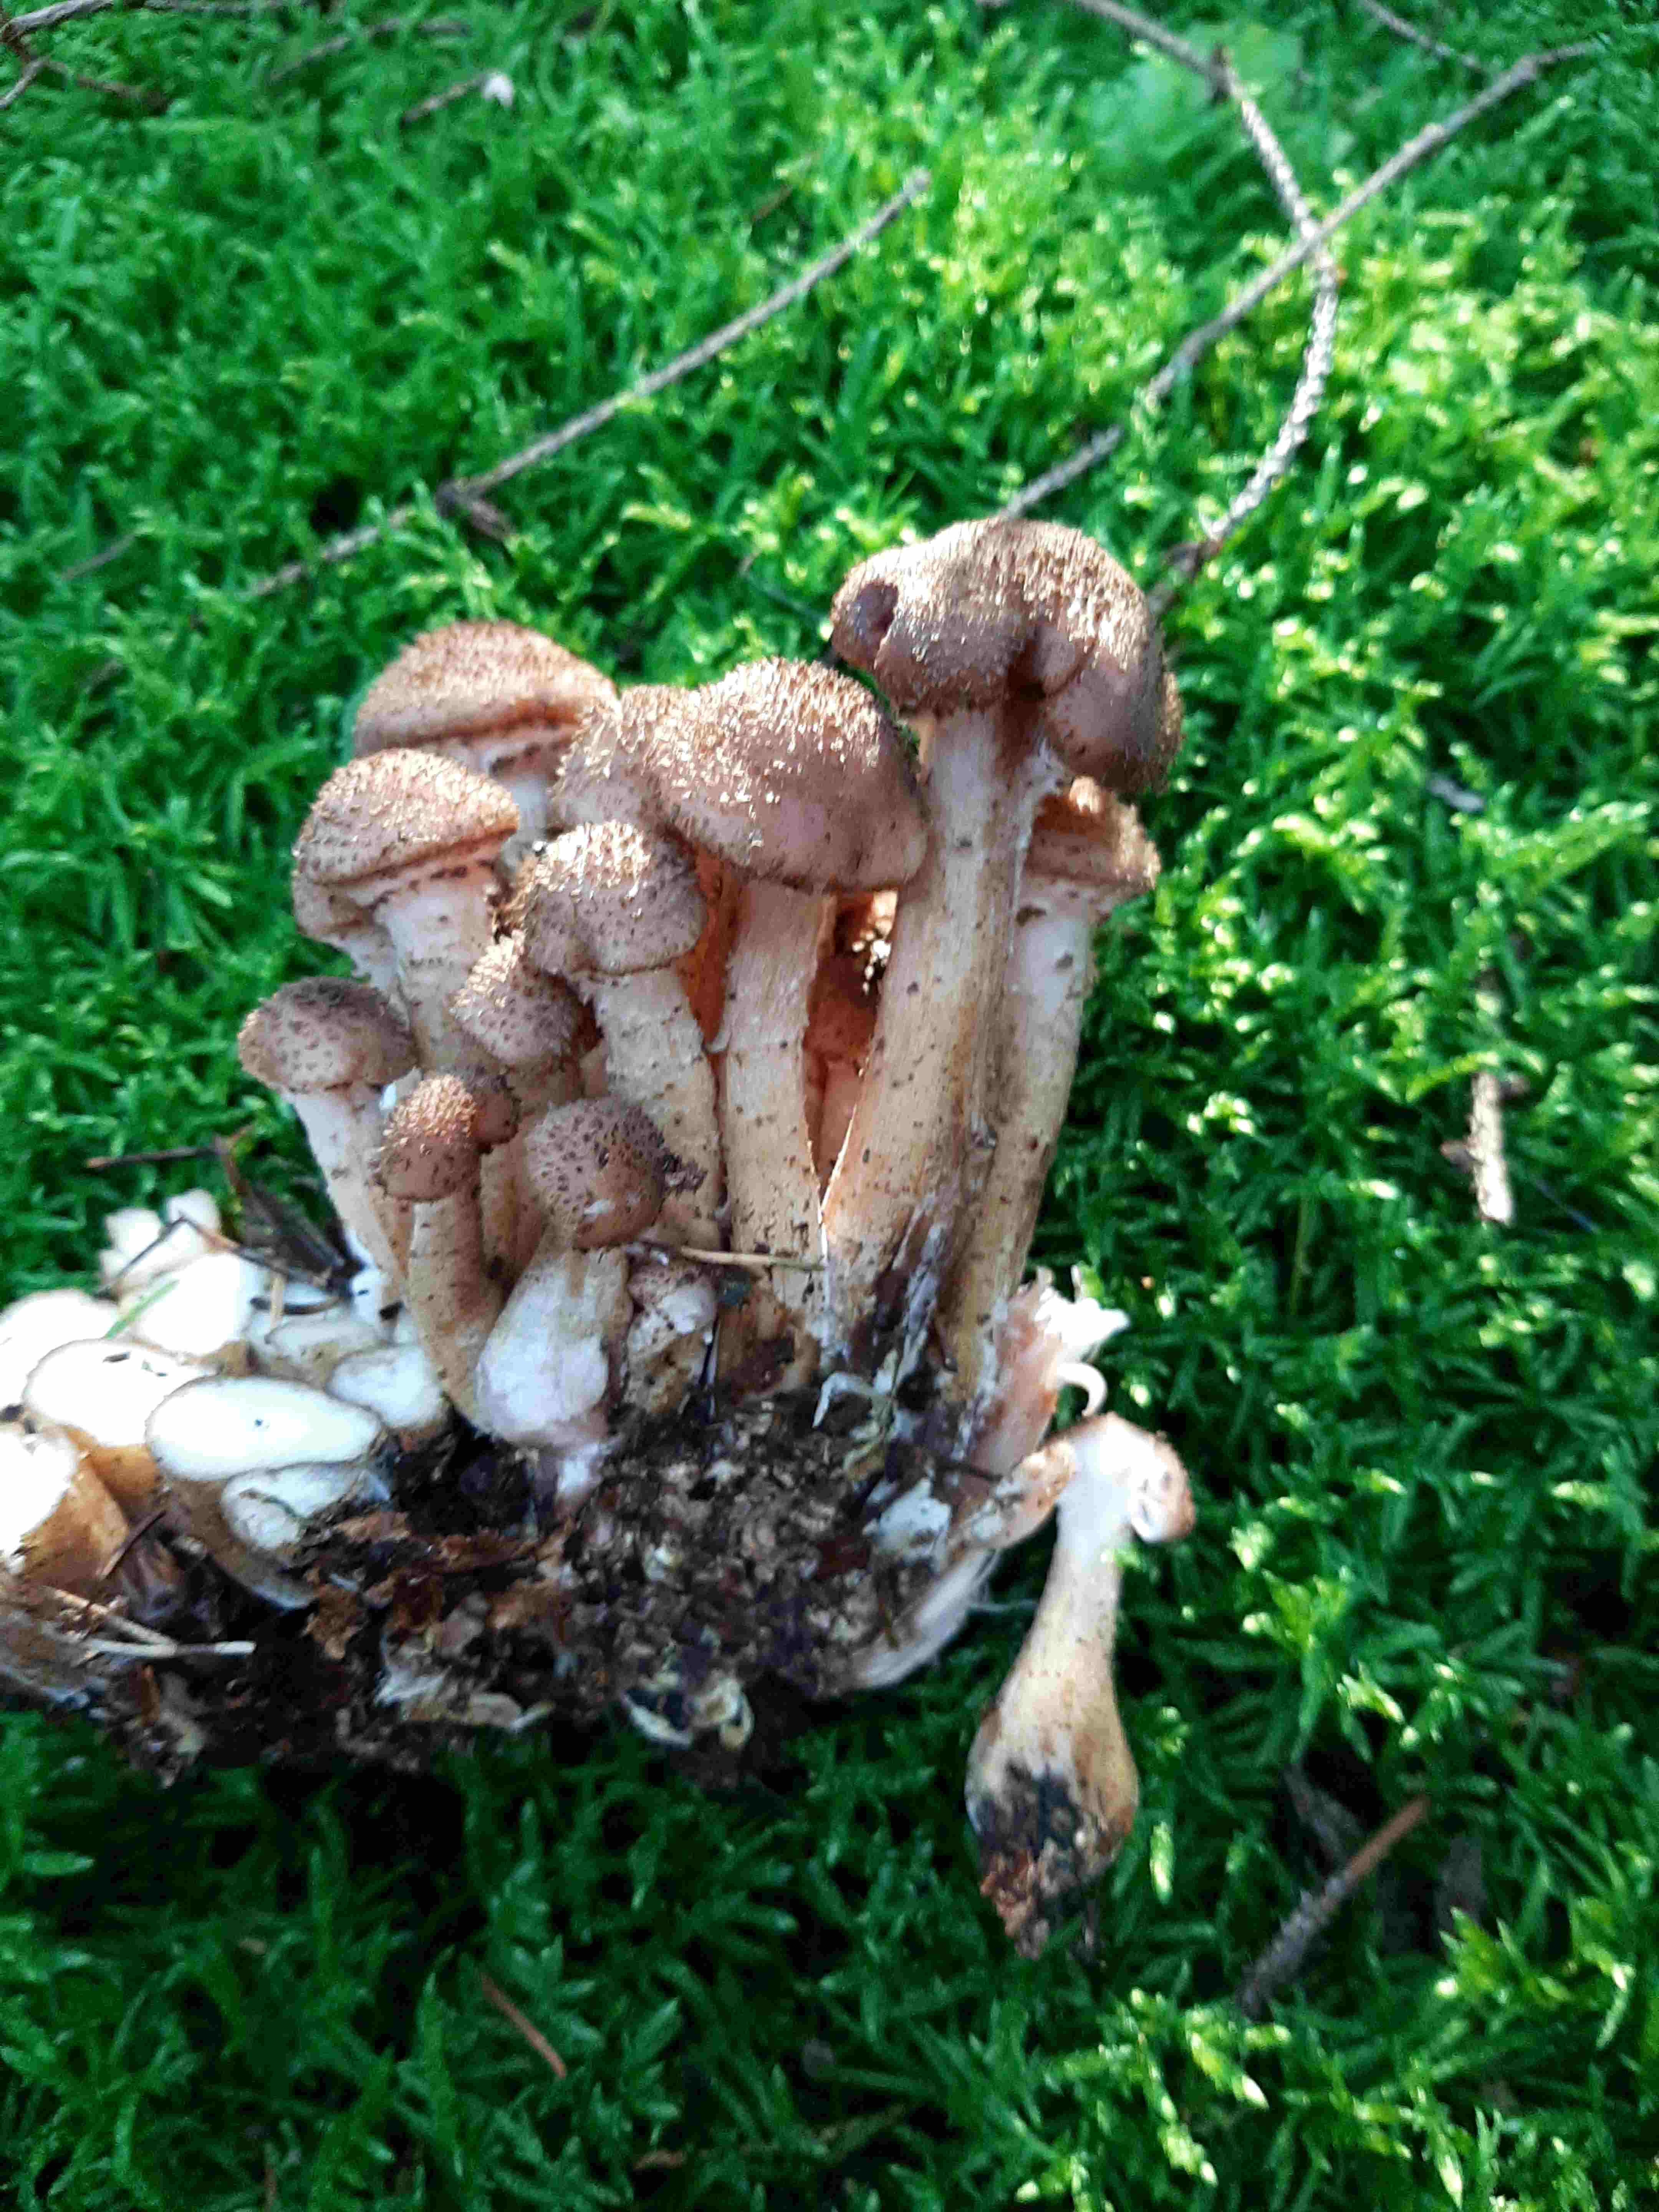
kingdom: Fungi
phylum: Basidiomycota
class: Agaricomycetes
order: Agaricales
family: Physalacriaceae
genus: Armillaria
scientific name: Armillaria ostoyae
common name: mørk honningsvamp
